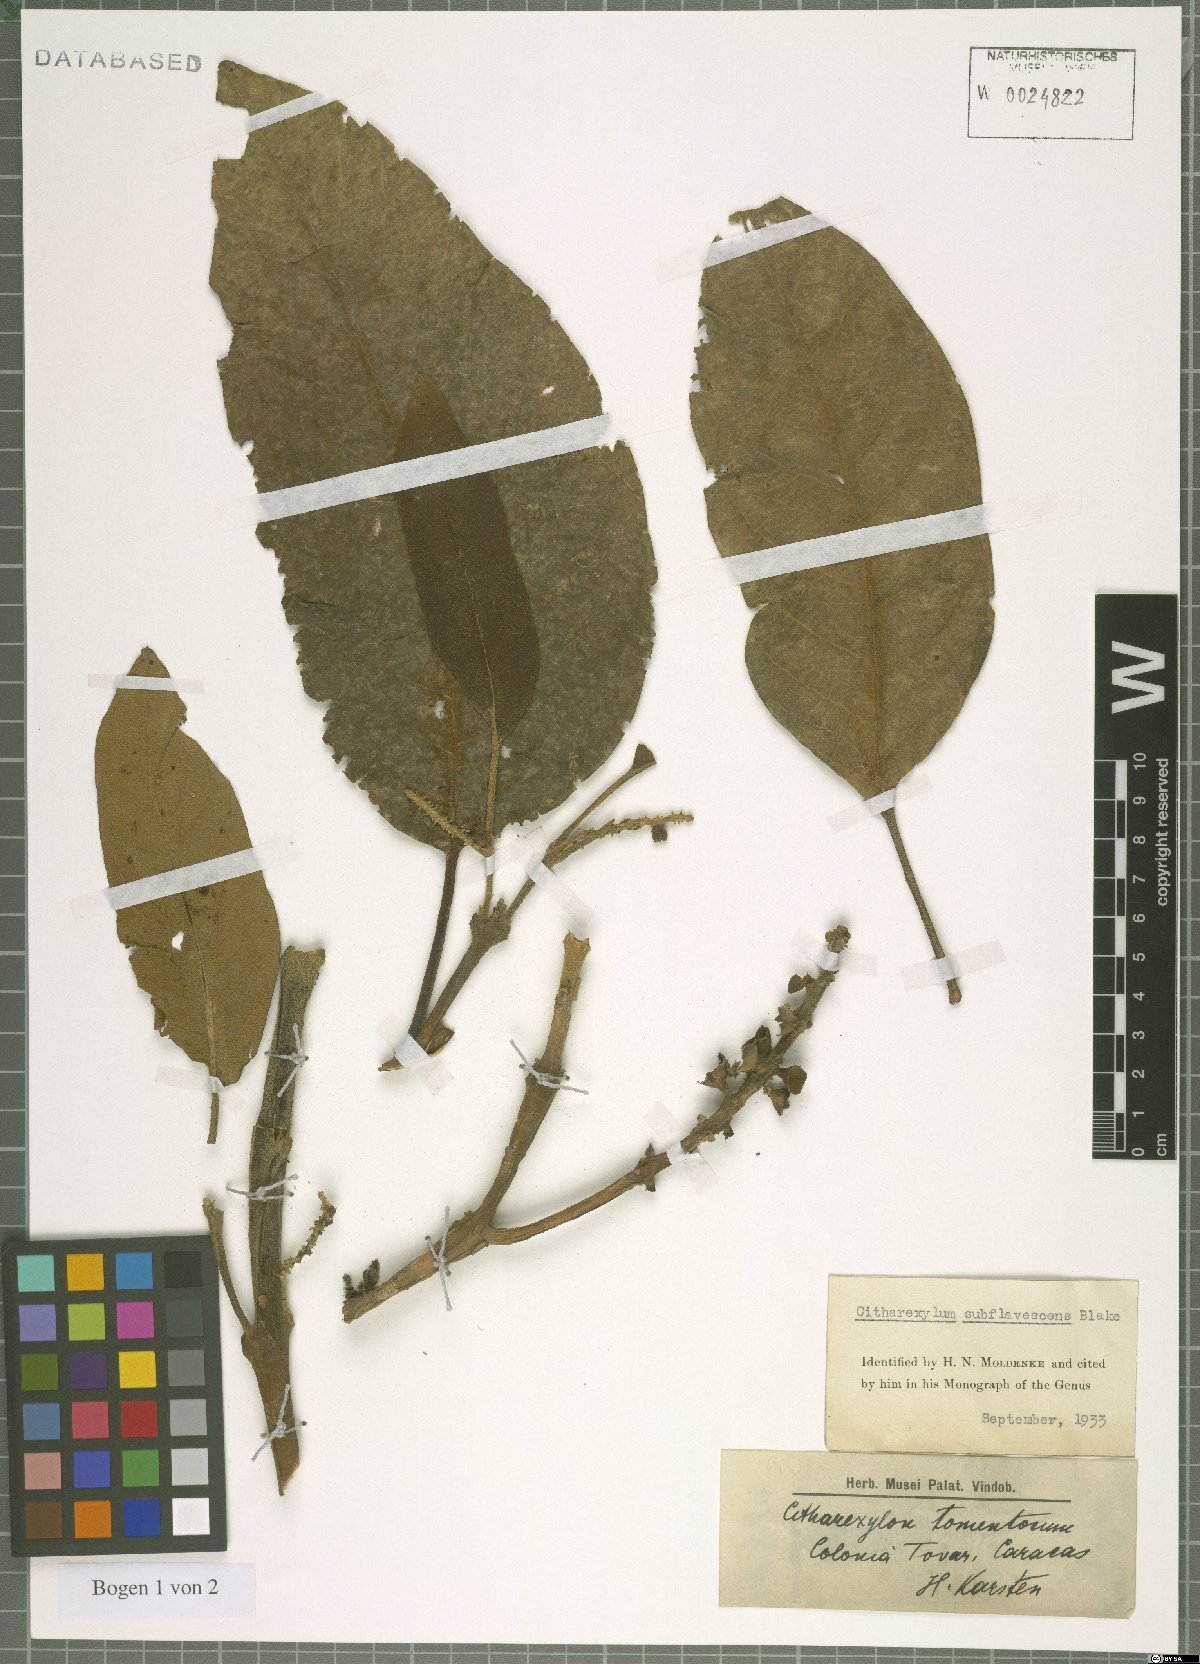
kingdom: Plantae
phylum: Tracheophyta
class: Magnoliopsida
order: Lamiales
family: Verbenaceae
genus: Citharexylum
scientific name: Citharexylum subflavescens
